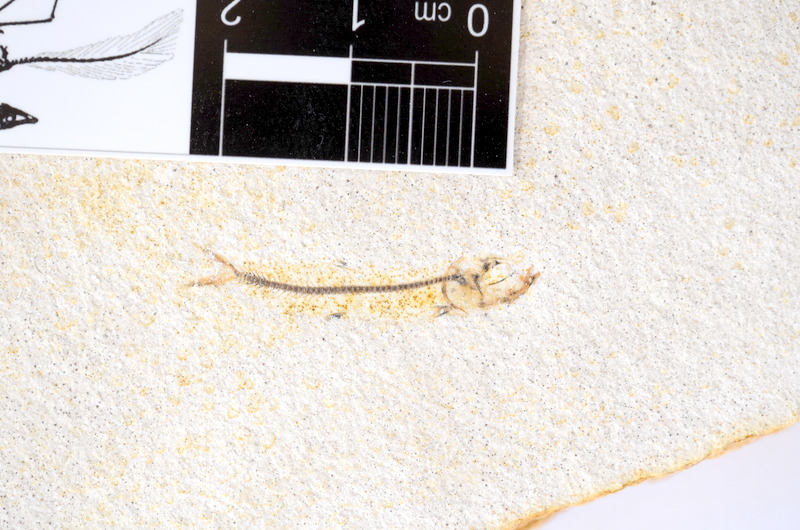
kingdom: Animalia
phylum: Chordata
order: Salmoniformes
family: Orthogonikleithridae
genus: Orthogonikleithrus
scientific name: Orthogonikleithrus hoelli
